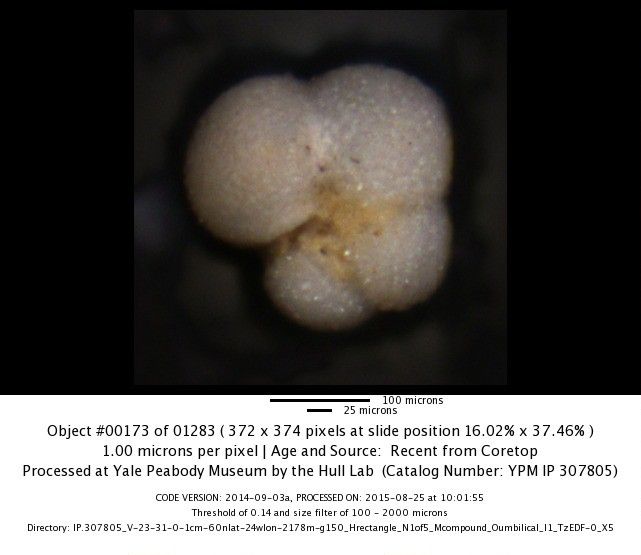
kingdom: Chromista
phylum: Foraminifera
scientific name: Foraminifera
